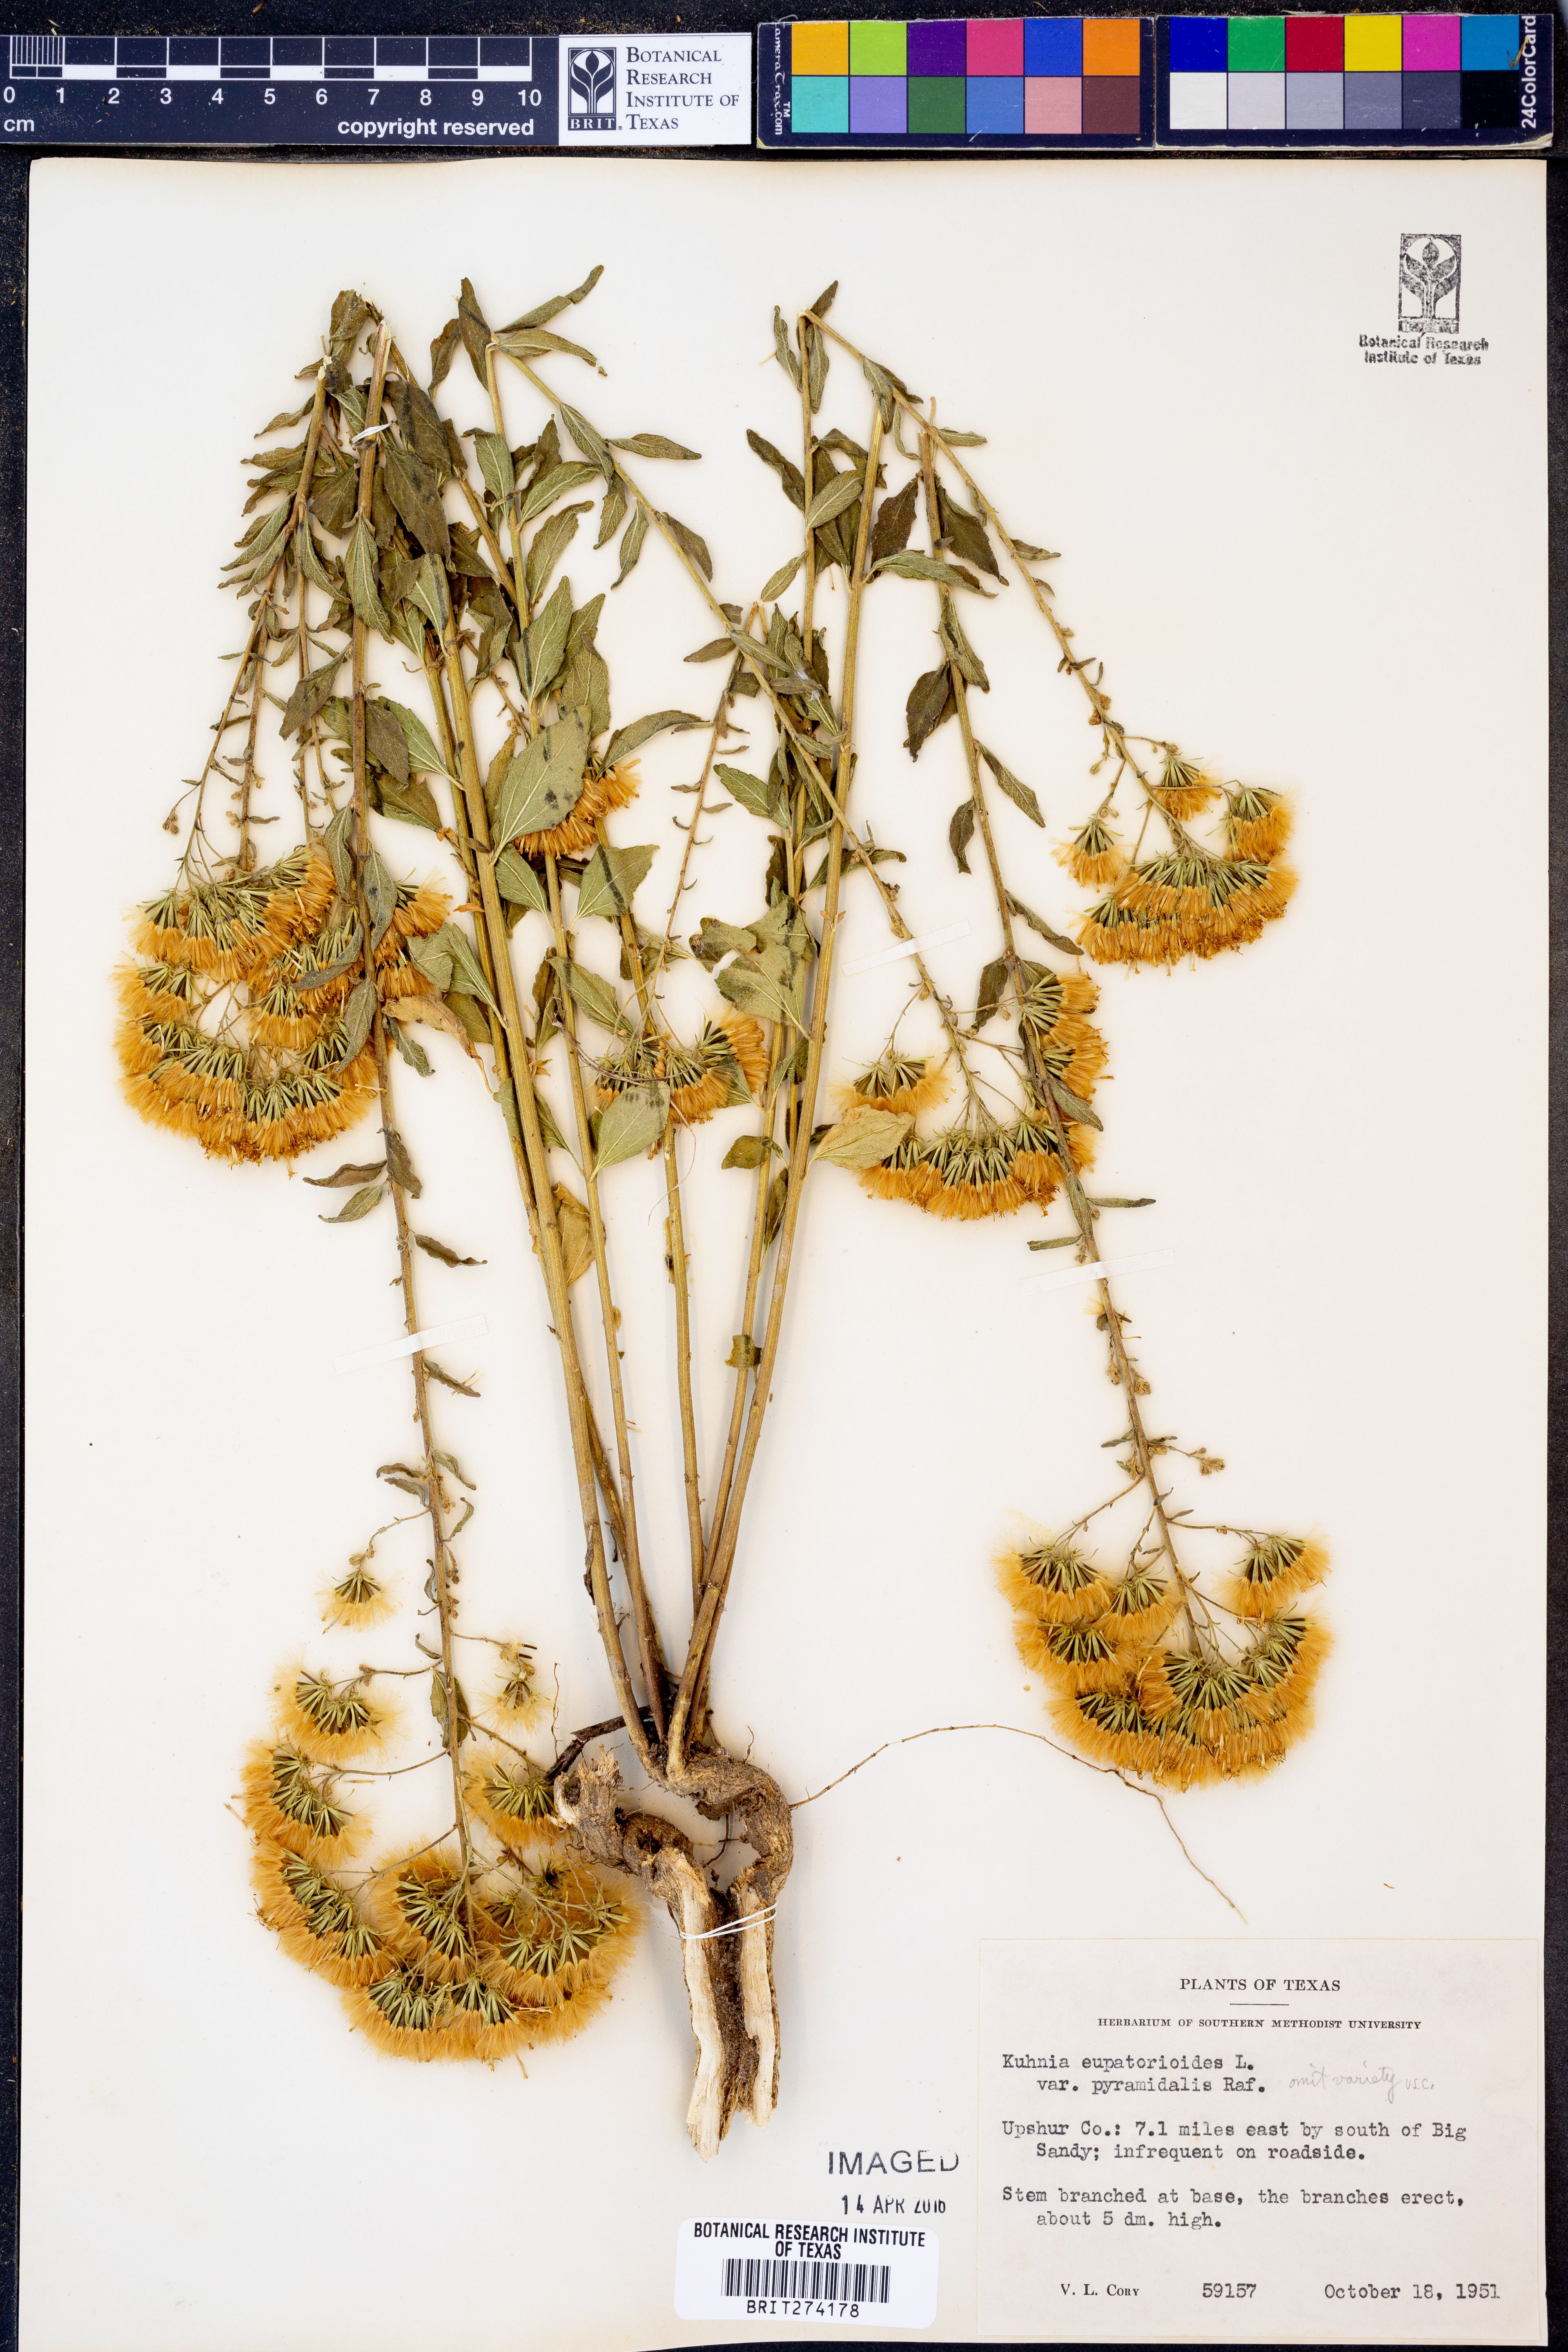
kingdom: Plantae
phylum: Tracheophyta
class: Magnoliopsida
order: Asterales
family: Asteraceae
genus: Brickellia
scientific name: Brickellia eupatorioides
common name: False boneset
